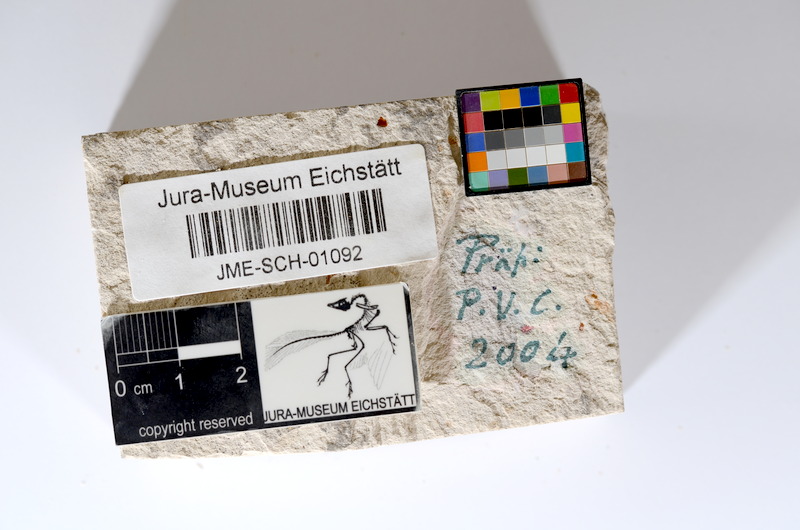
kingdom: Animalia
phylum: Chordata
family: Ascalaboidae
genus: Tharsis
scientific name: Tharsis dubius
